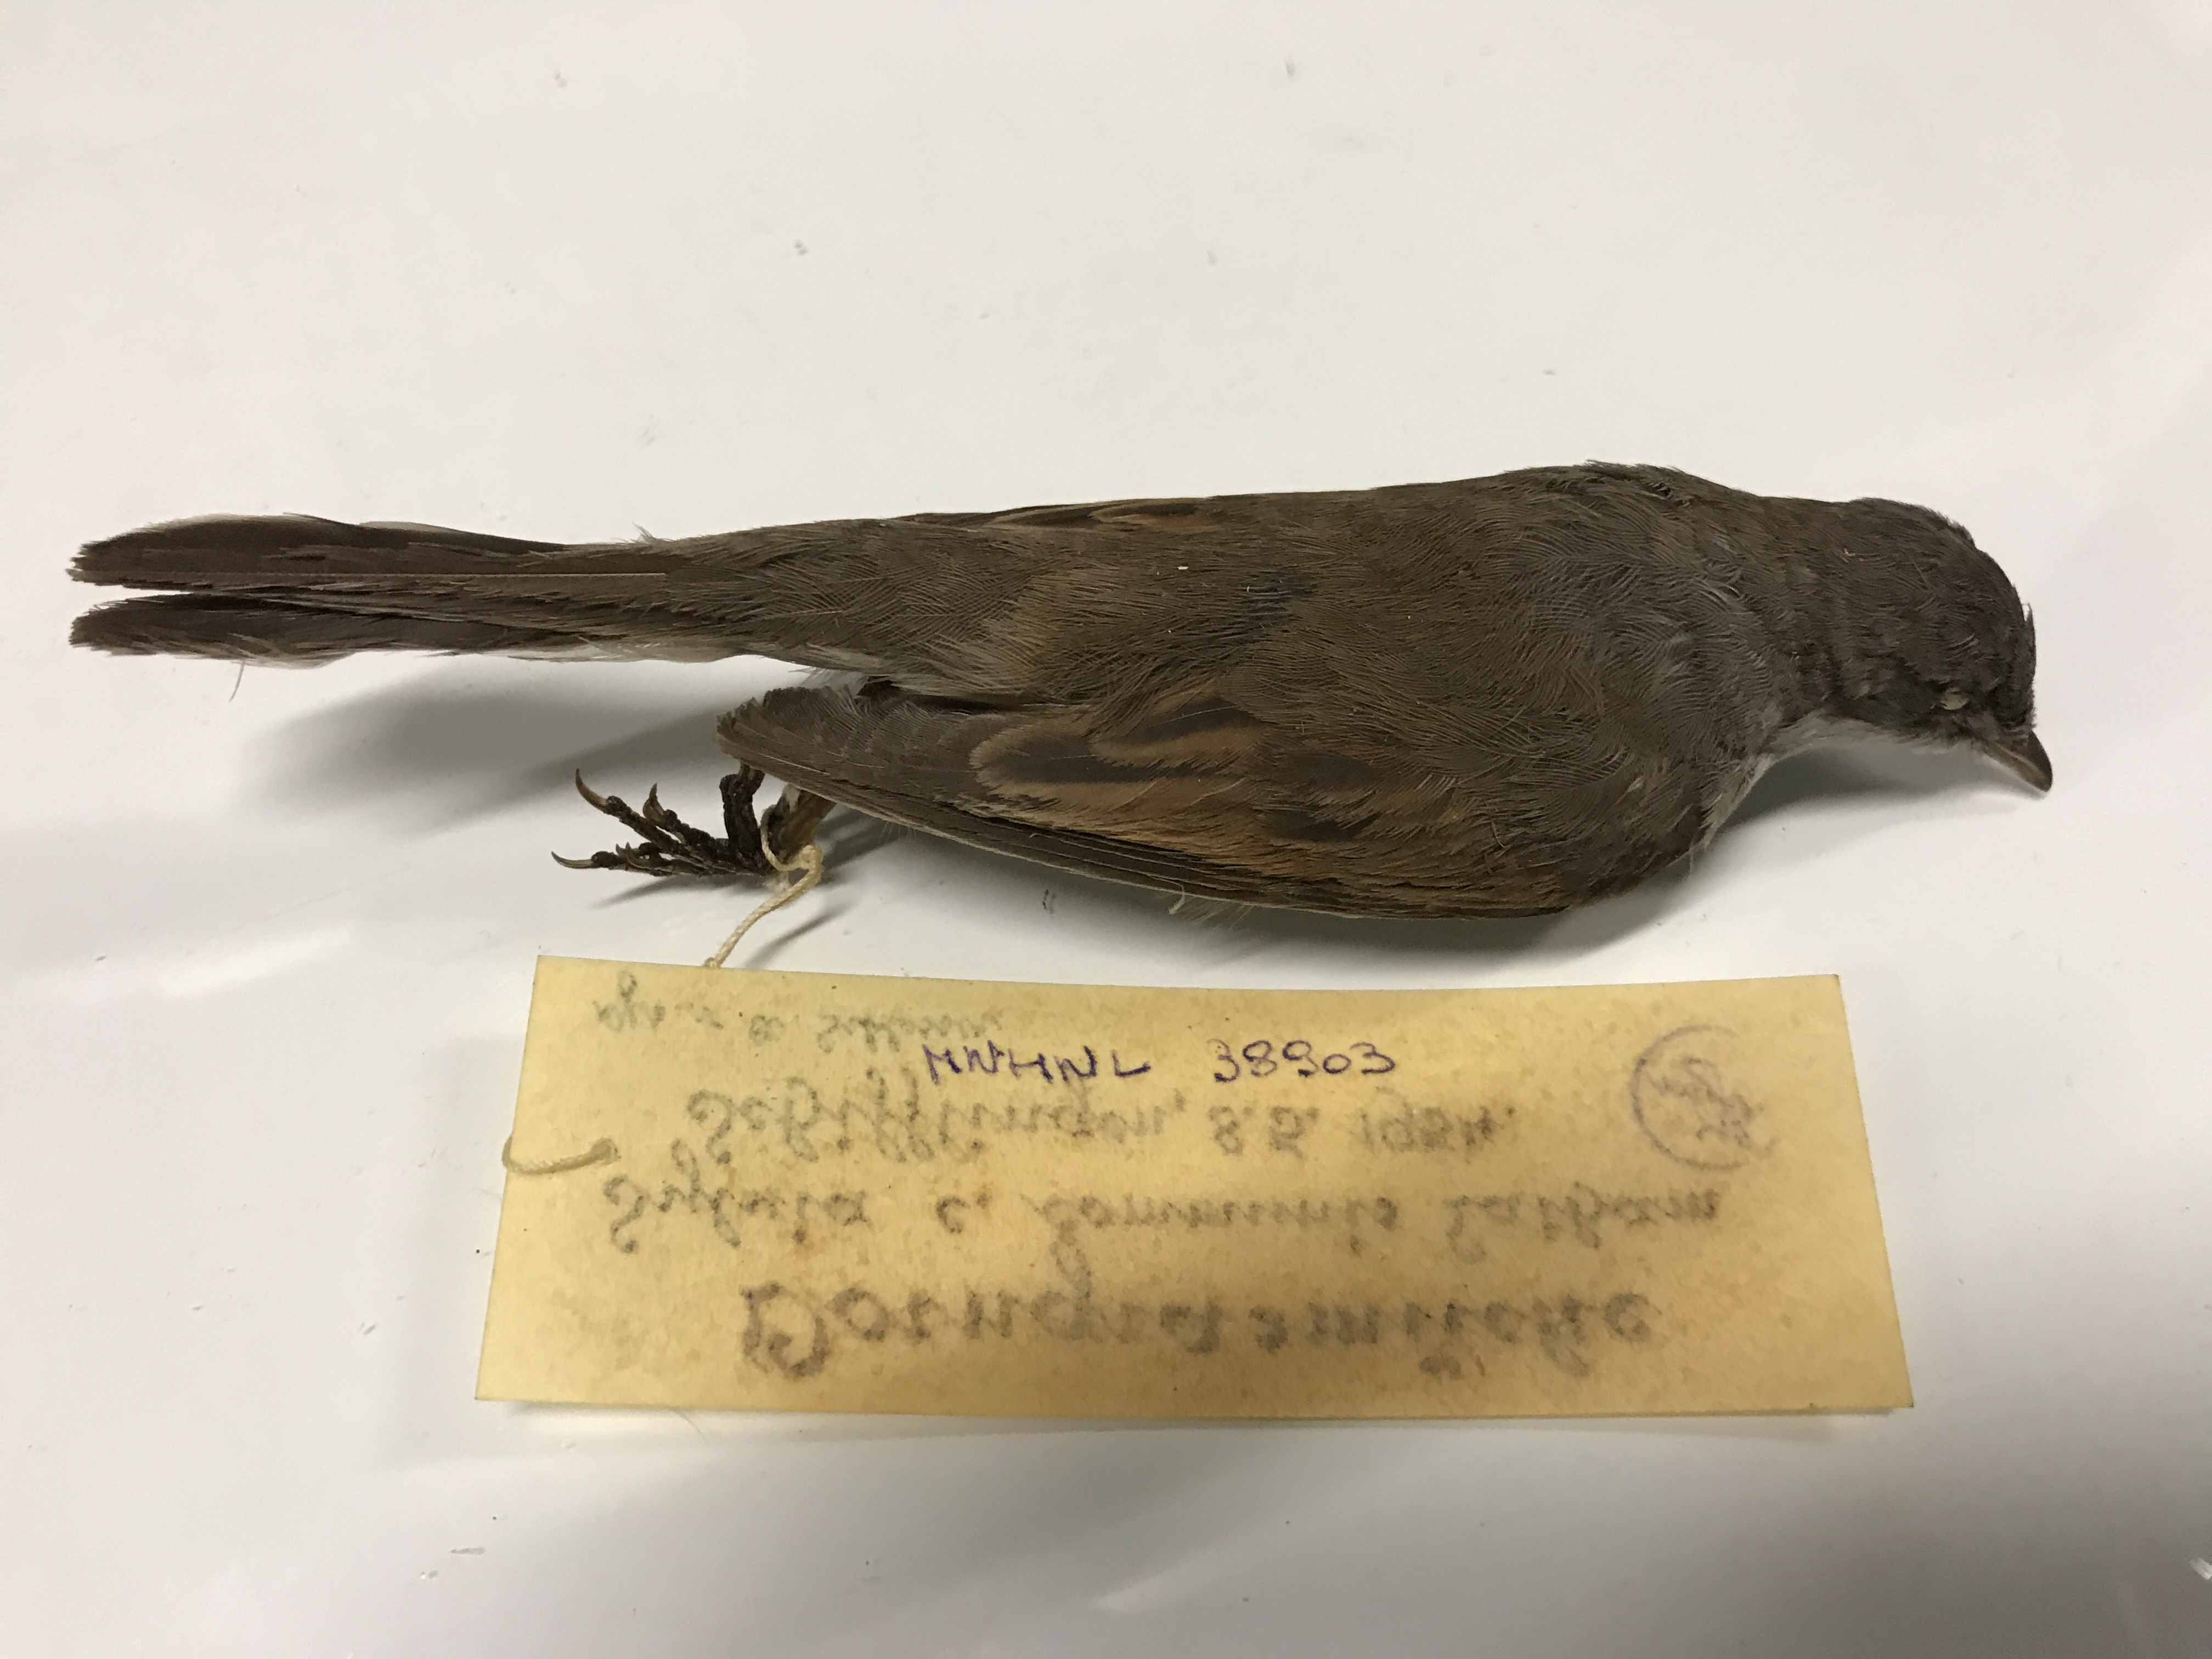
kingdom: Animalia
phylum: Chordata
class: Aves
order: Passeriformes
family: Sylviidae
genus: Sylvia
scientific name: Sylvia communis
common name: Common whitethroat
